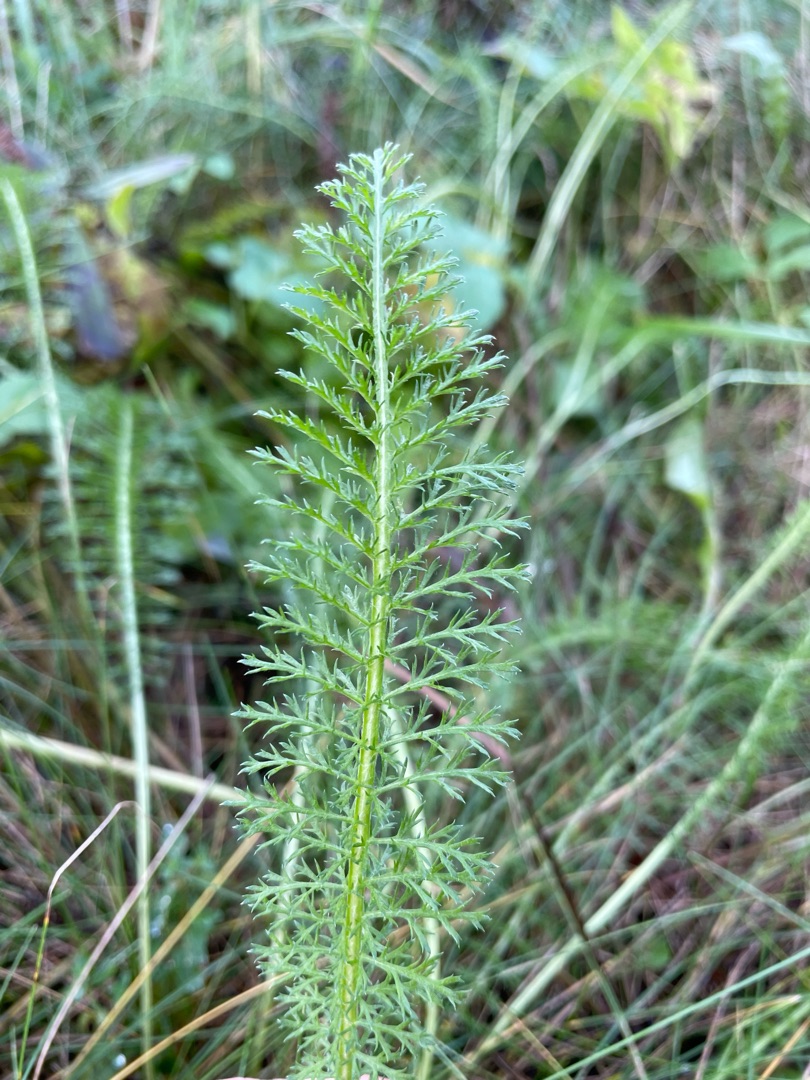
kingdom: Plantae
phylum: Tracheophyta
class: Magnoliopsida
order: Asterales
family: Asteraceae
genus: Achillea
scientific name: Achillea millefolium
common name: Almindelig røllike
